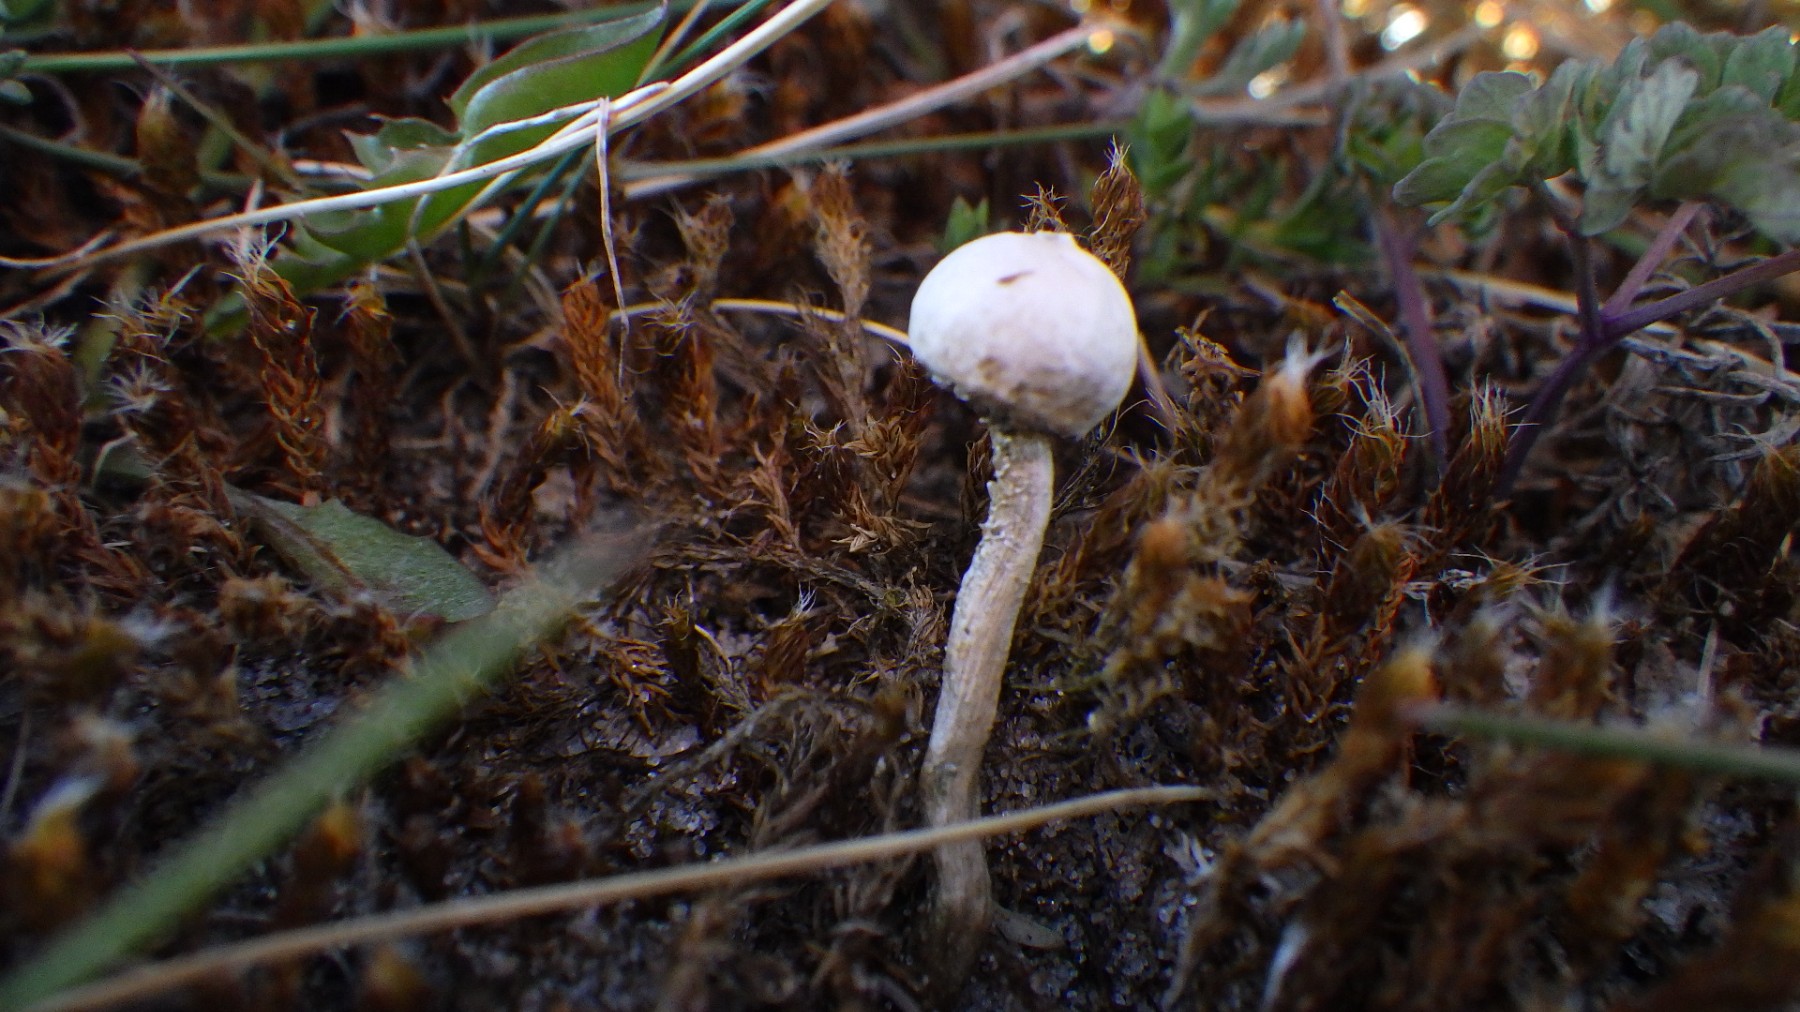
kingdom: Fungi
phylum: Basidiomycota
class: Agaricomycetes
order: Agaricales
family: Agaricaceae
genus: Tulostoma
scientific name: Tulostoma brumale
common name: vinter-stilkbovist
